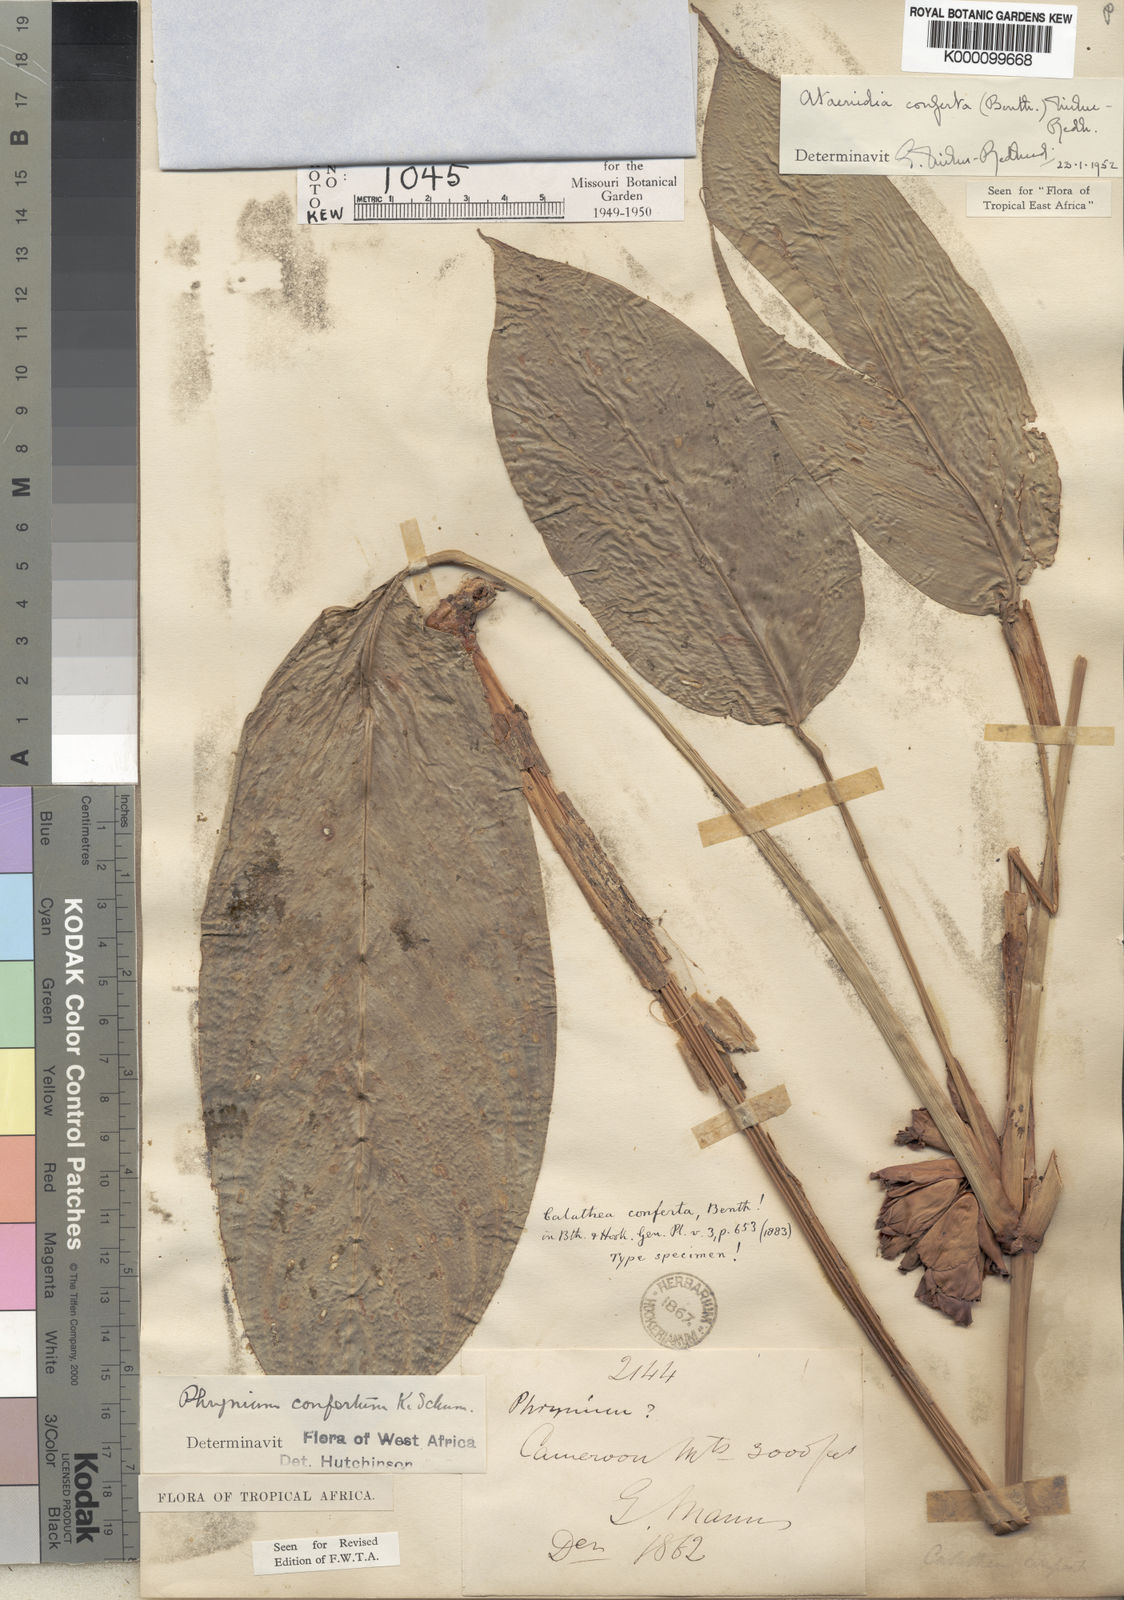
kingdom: Plantae
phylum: Tracheophyta
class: Liliopsida
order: Zingiberales
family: Marantaceae
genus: Marantochloa
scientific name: Marantochloa conferta
